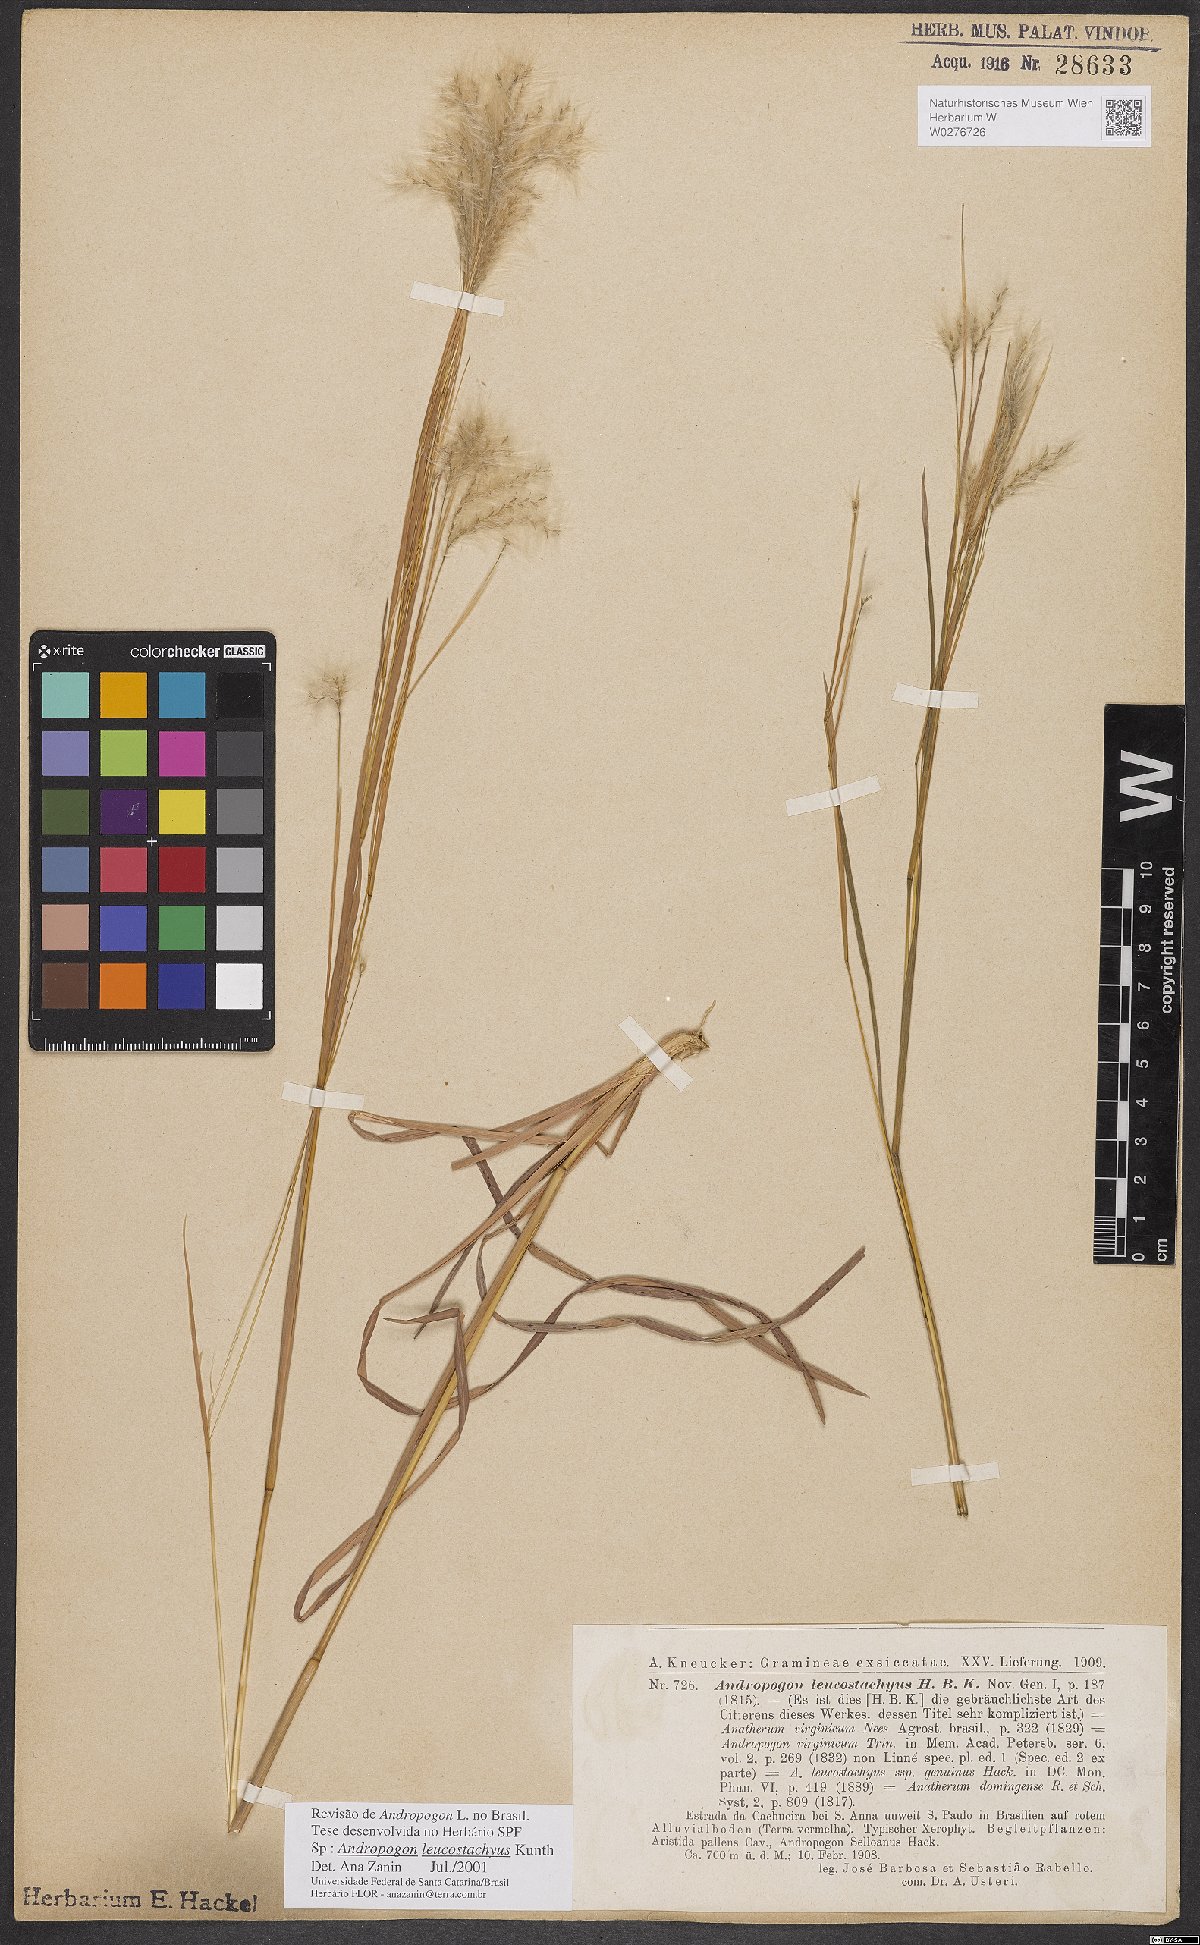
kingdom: Plantae
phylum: Tracheophyta
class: Liliopsida
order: Poales
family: Poaceae
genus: Andropogon
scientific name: Andropogon leucostachyus
